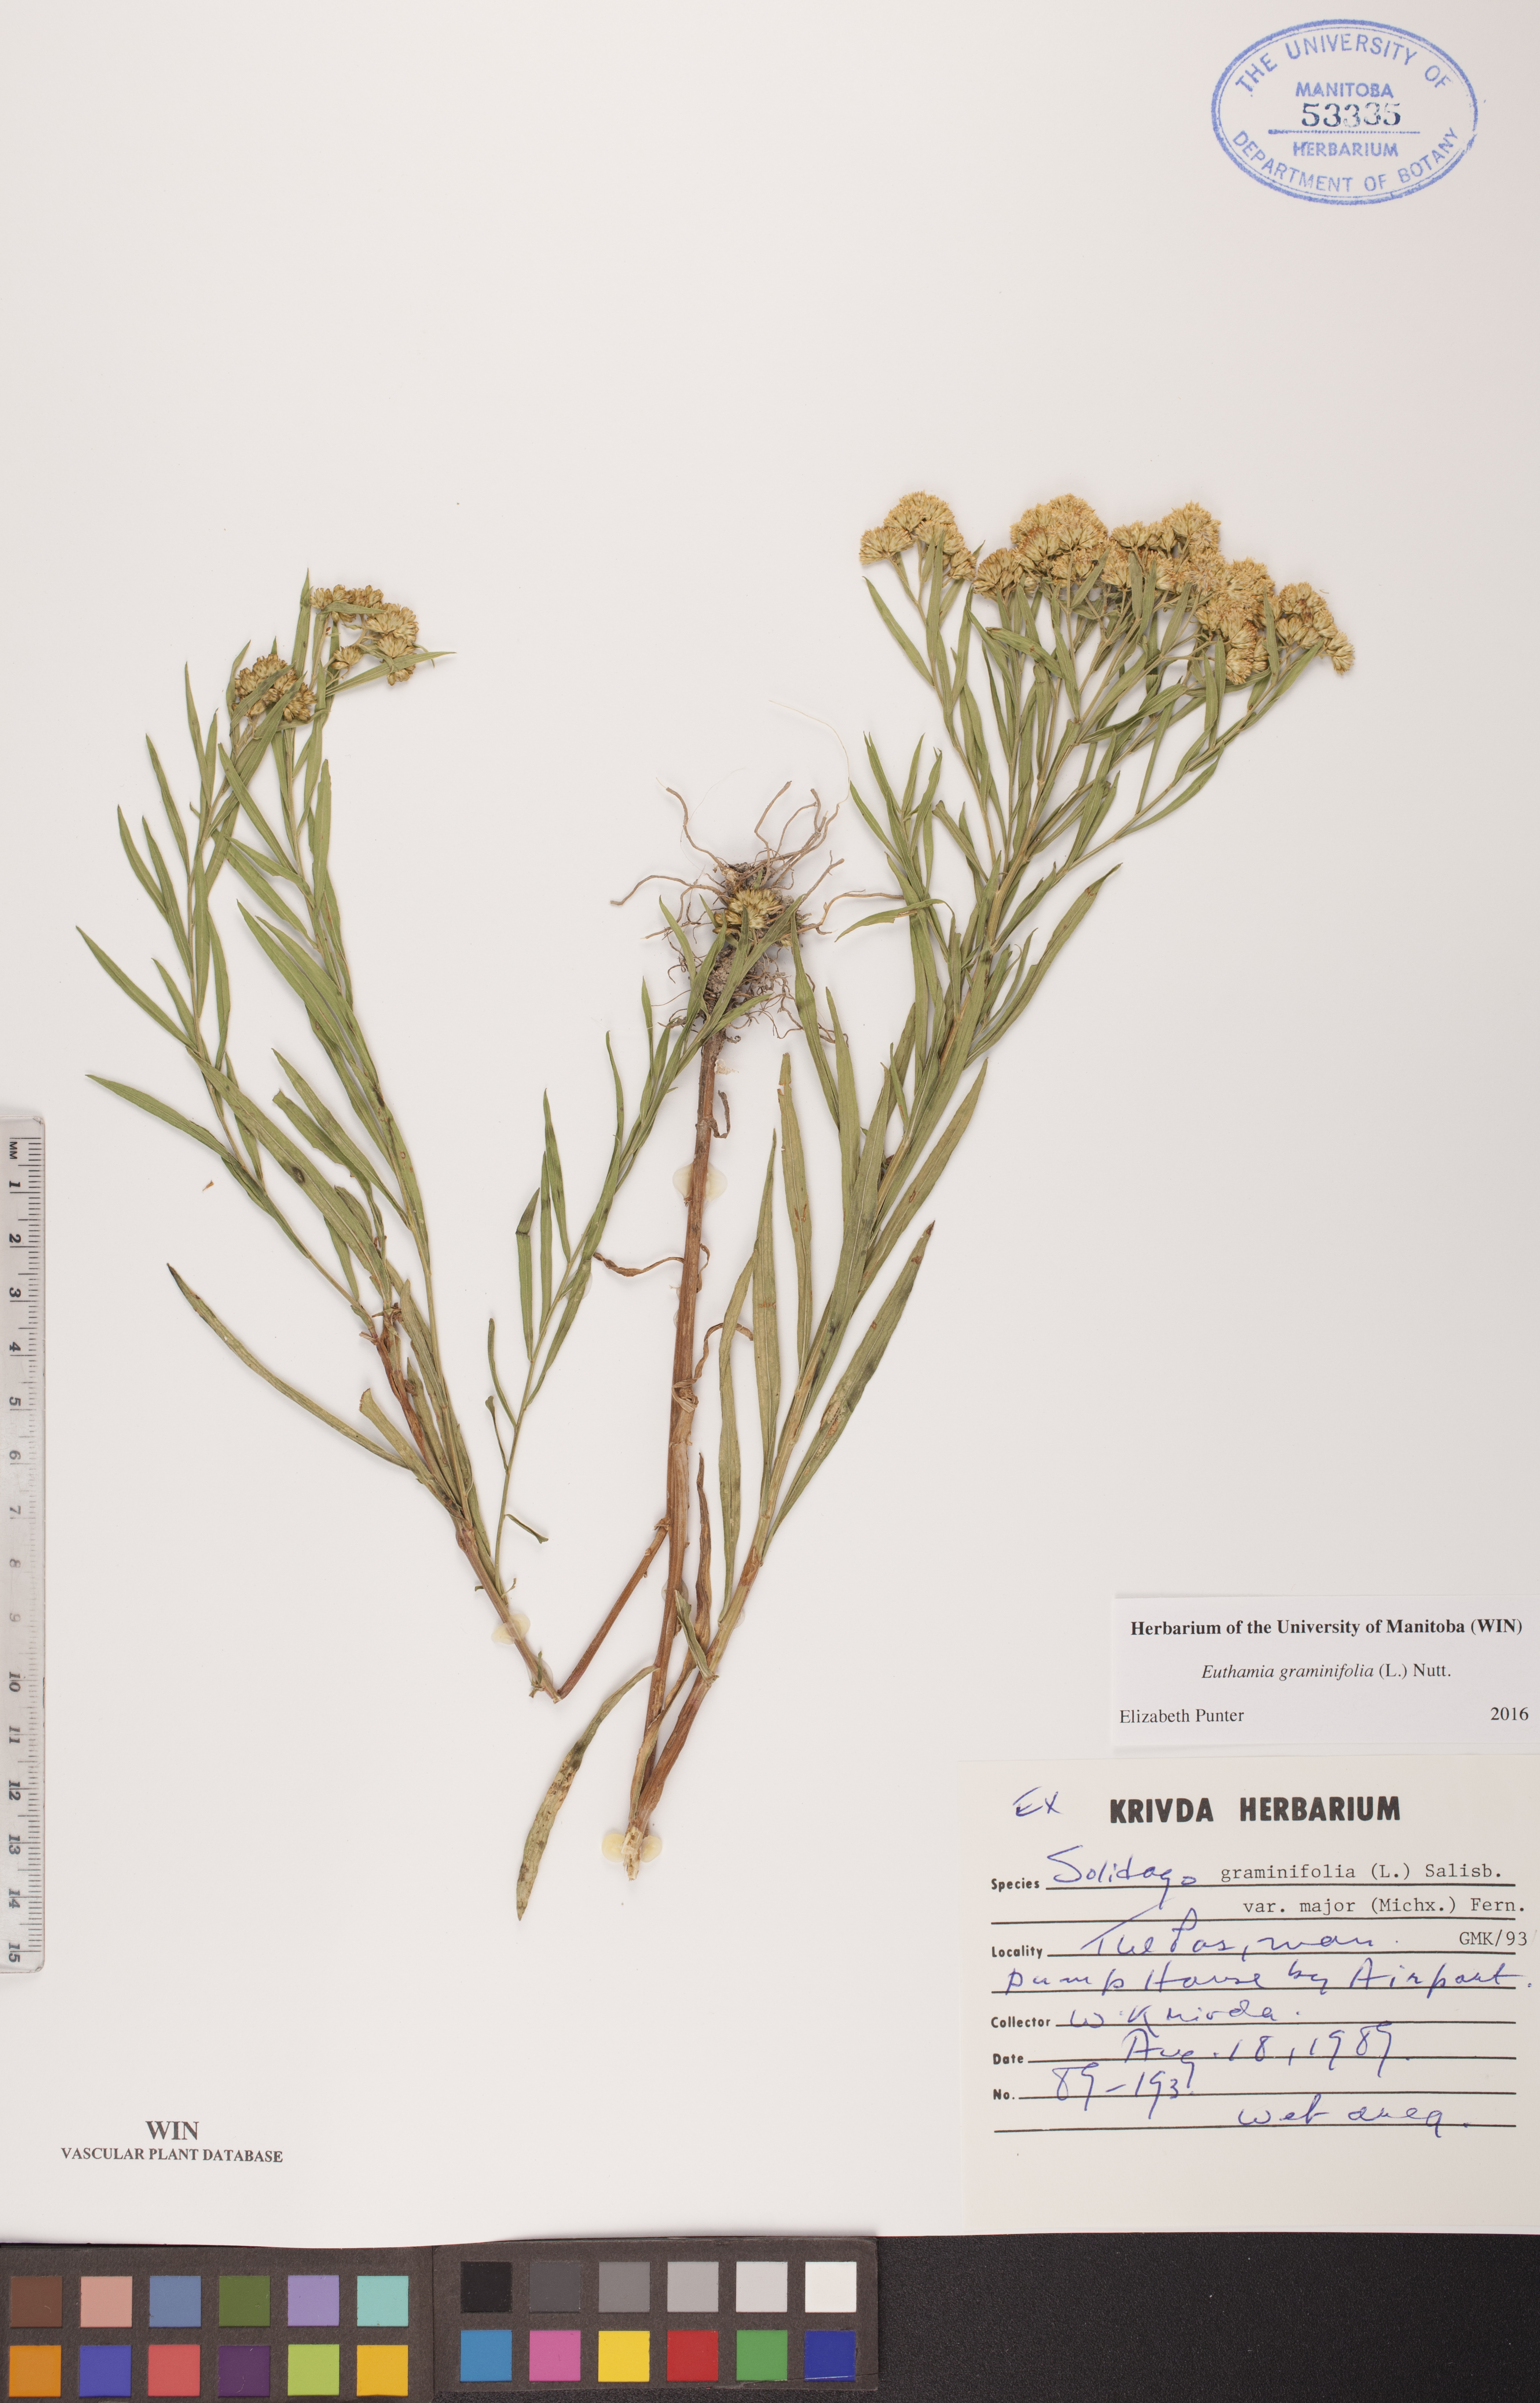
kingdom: Plantae
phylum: Tracheophyta
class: Magnoliopsida
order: Asterales
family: Asteraceae
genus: Euthamia
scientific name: Euthamia graminifolia
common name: Common goldentop
